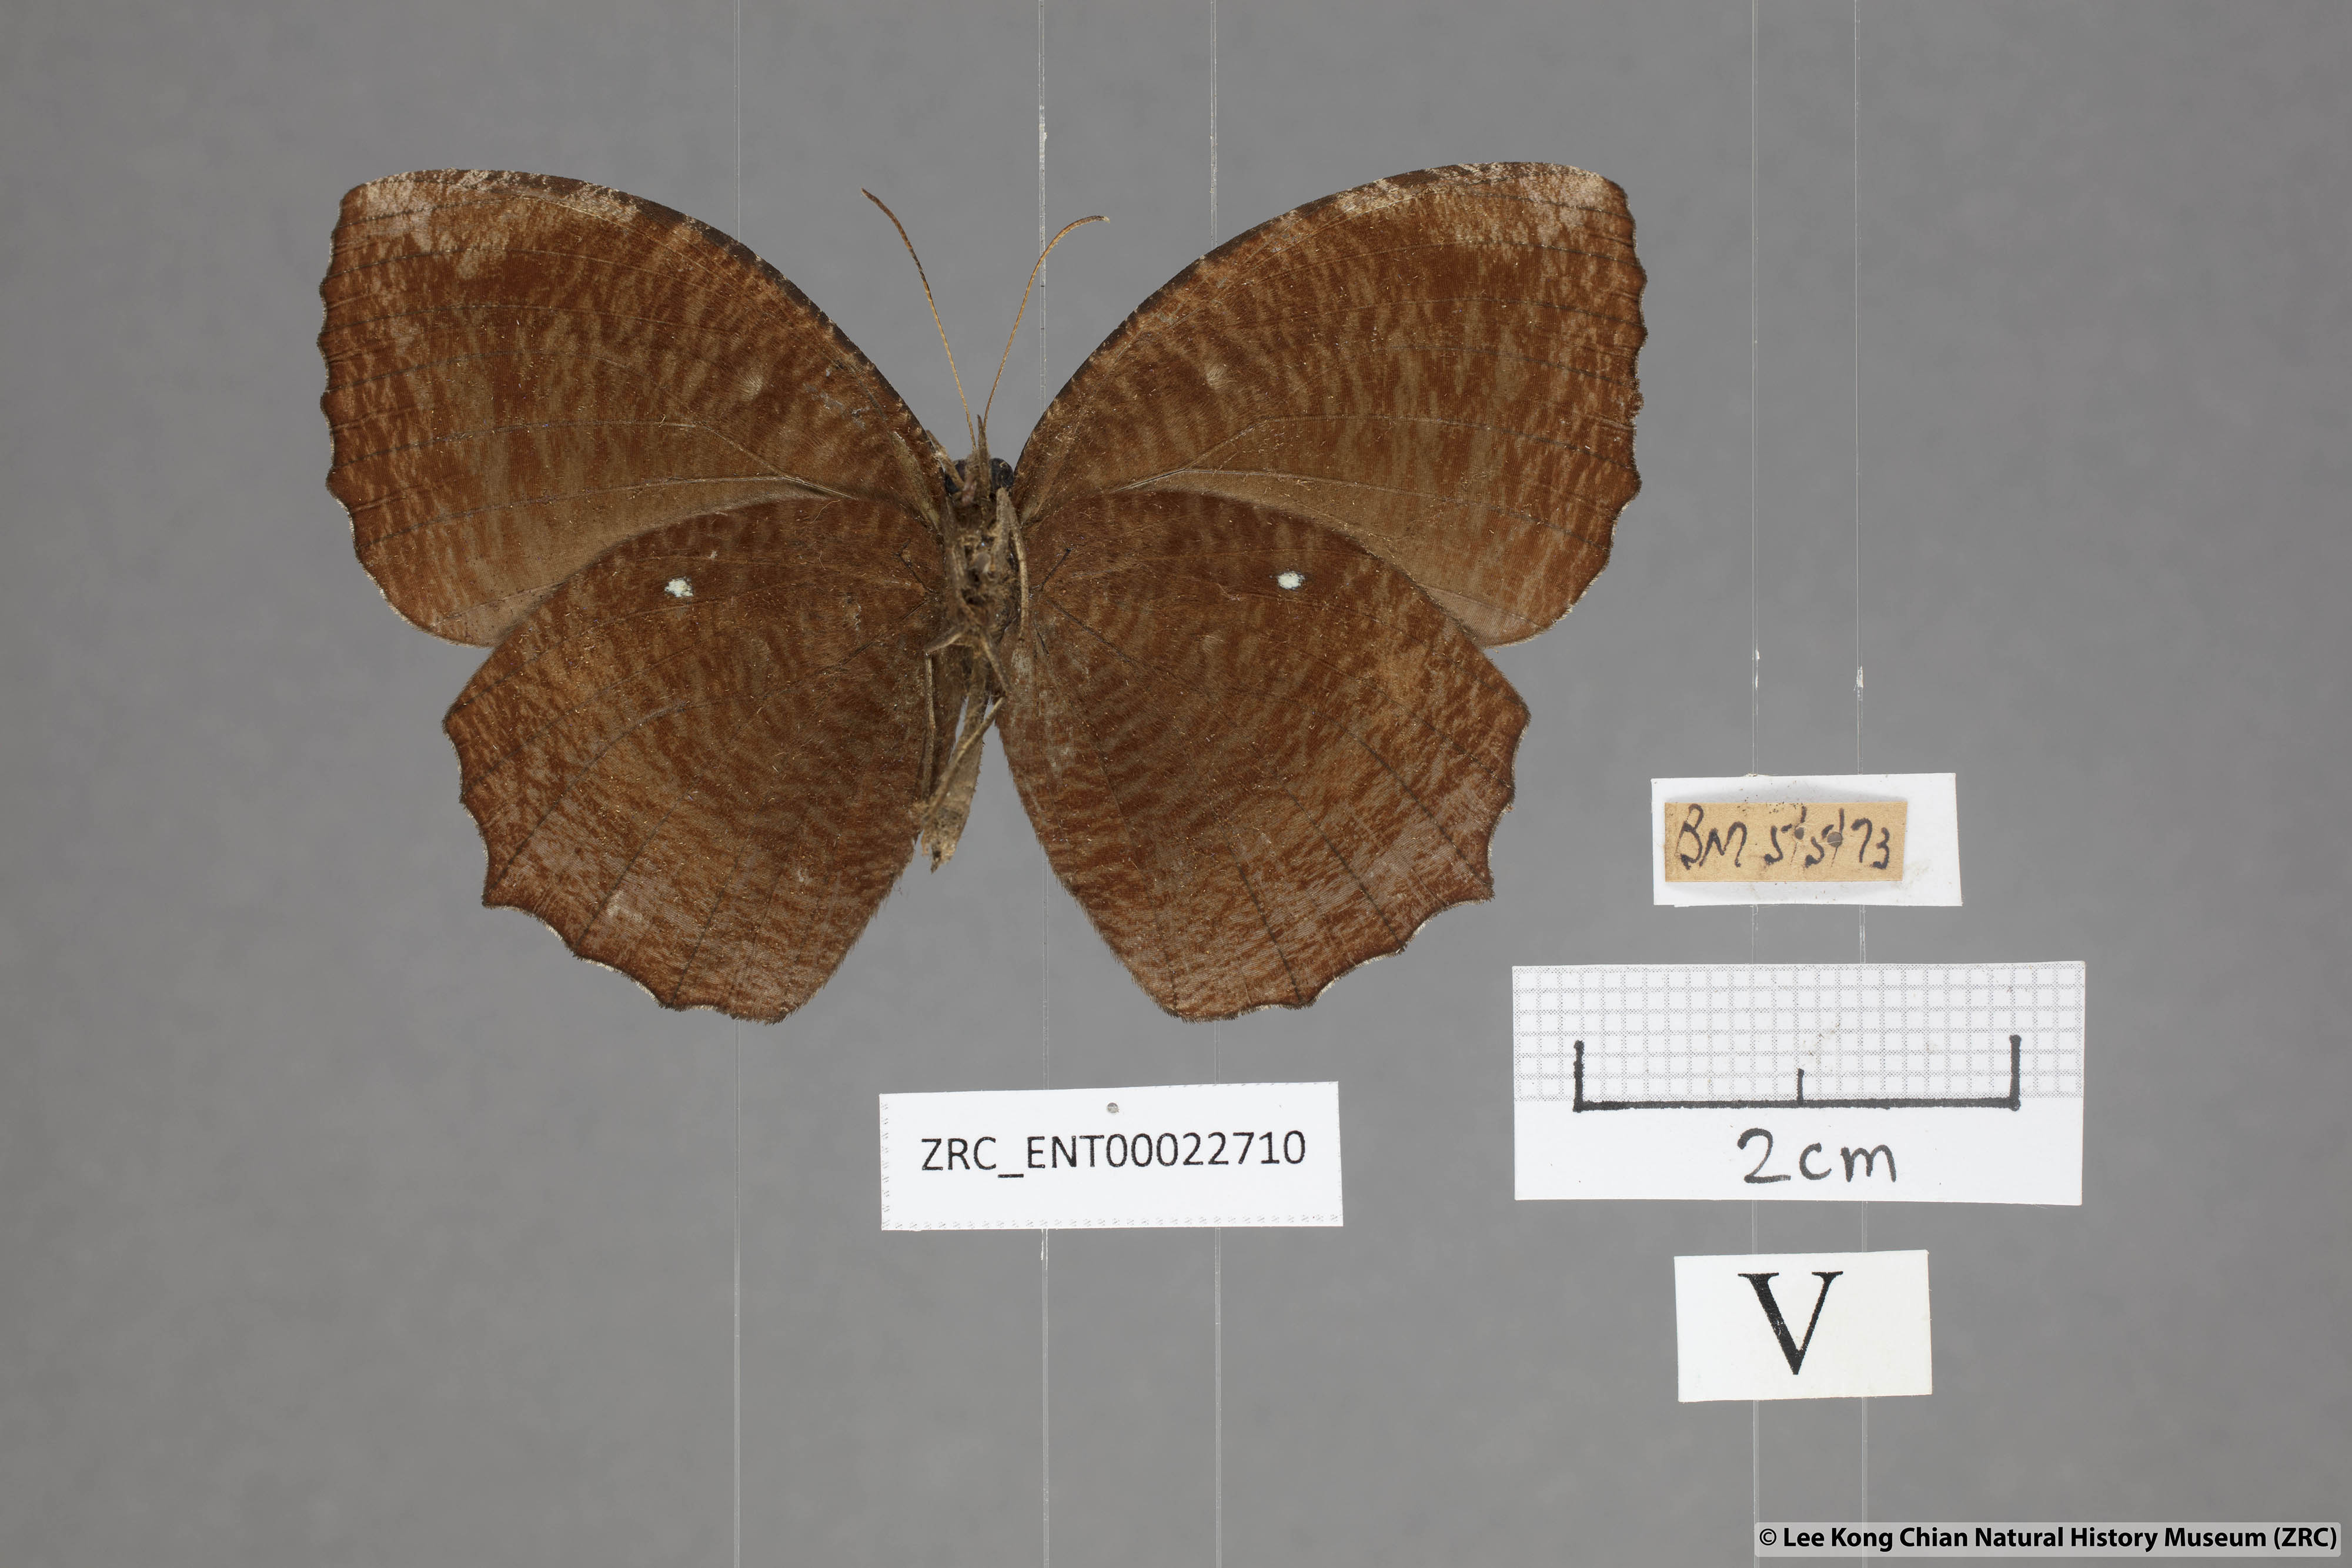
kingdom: Animalia
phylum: Arthropoda
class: Insecta
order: Lepidoptera
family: Nymphalidae
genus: Elymnias
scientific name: Elymnias hypermnestra
